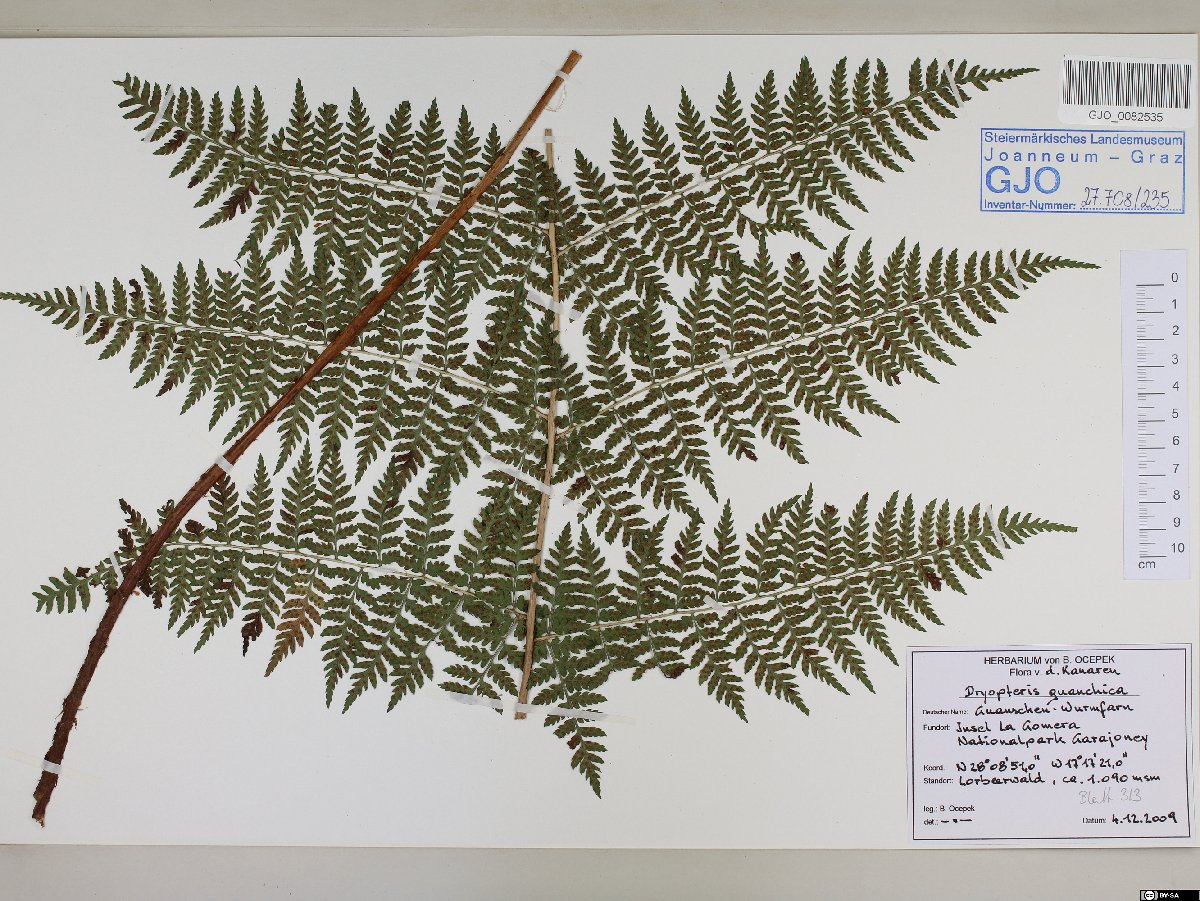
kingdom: Plantae
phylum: Tracheophyta
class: Polypodiopsida
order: Polypodiales
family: Dryopteridaceae
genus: Dryopteris
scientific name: Dryopteris guanchica
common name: Guanche woodfern
